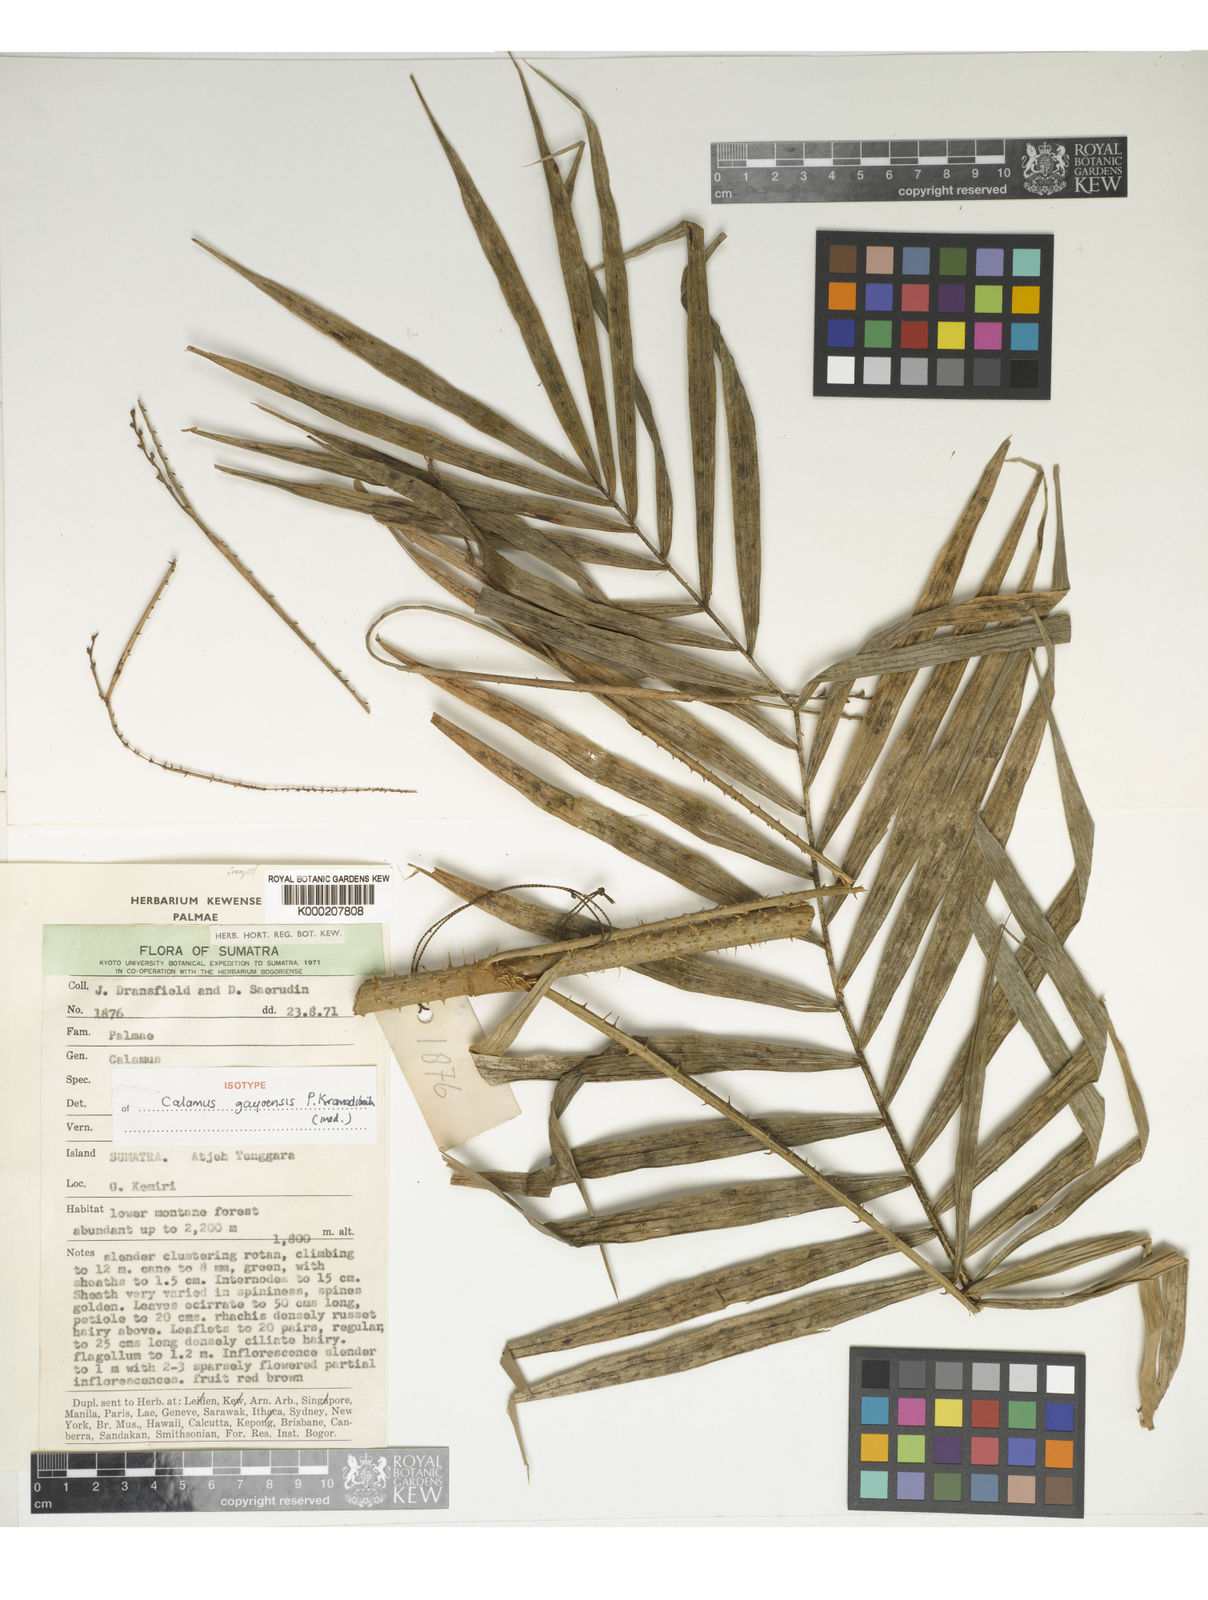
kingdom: Plantae
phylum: Tracheophyta
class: Liliopsida
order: Arecales
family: Arecaceae
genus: Calamus
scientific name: Calamus gajoensis
